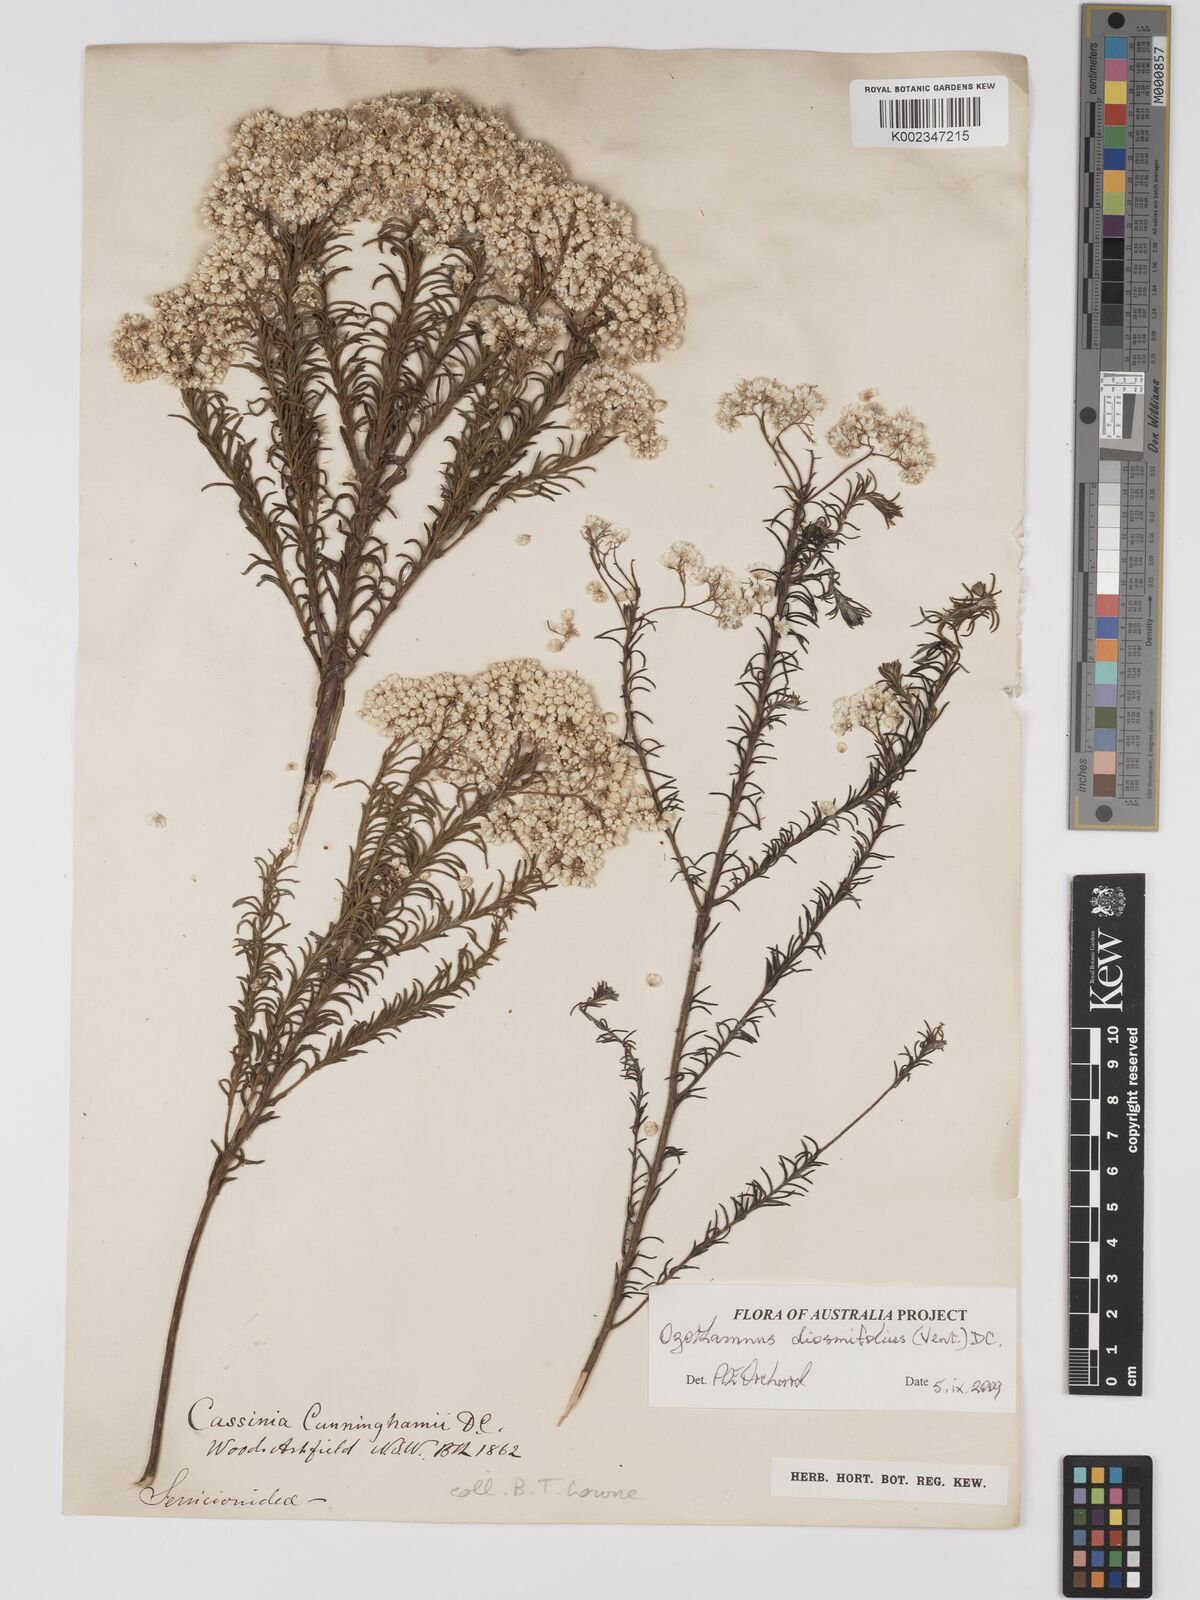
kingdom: Plantae
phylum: Tracheophyta
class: Magnoliopsida
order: Asterales
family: Asteraceae
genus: Ozothamnus
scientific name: Ozothamnus diosmifolius
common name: White-dogwood
